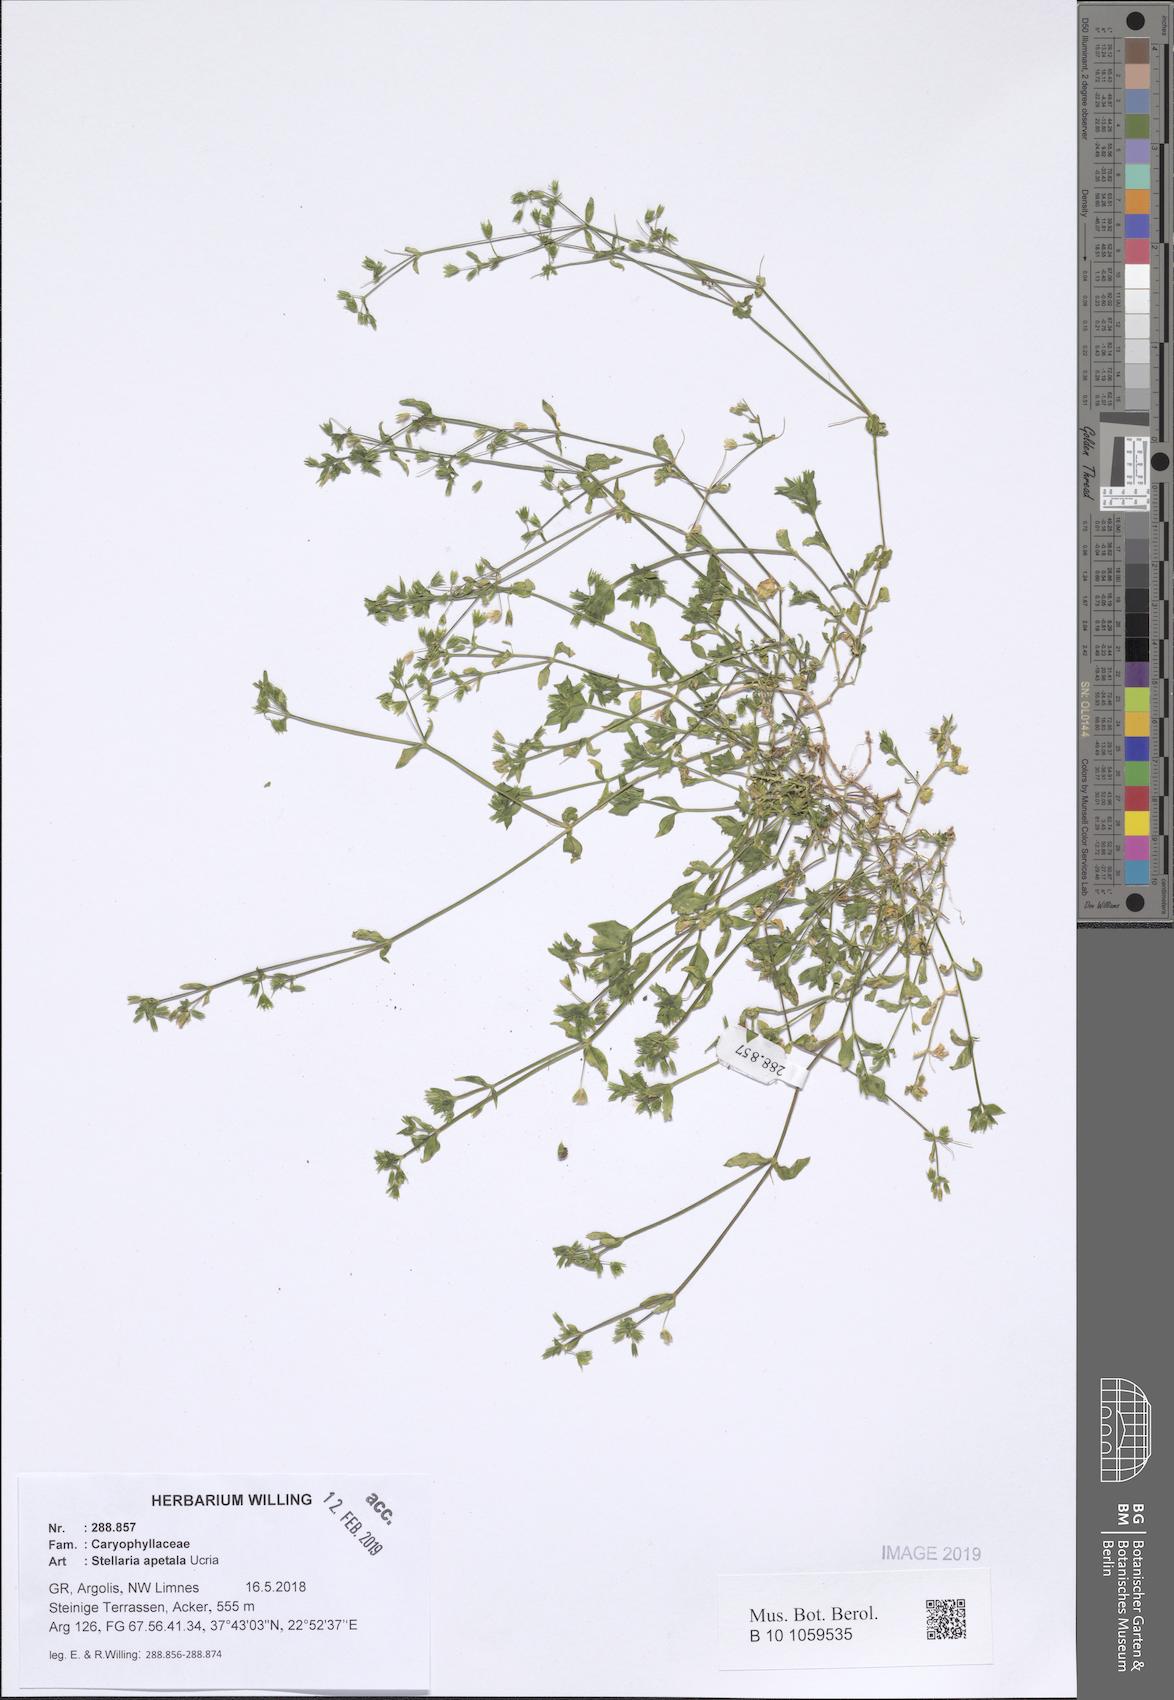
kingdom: Plantae
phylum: Tracheophyta
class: Magnoliopsida
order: Caryophyllales
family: Caryophyllaceae
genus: Stellaria
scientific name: Stellaria apetala
